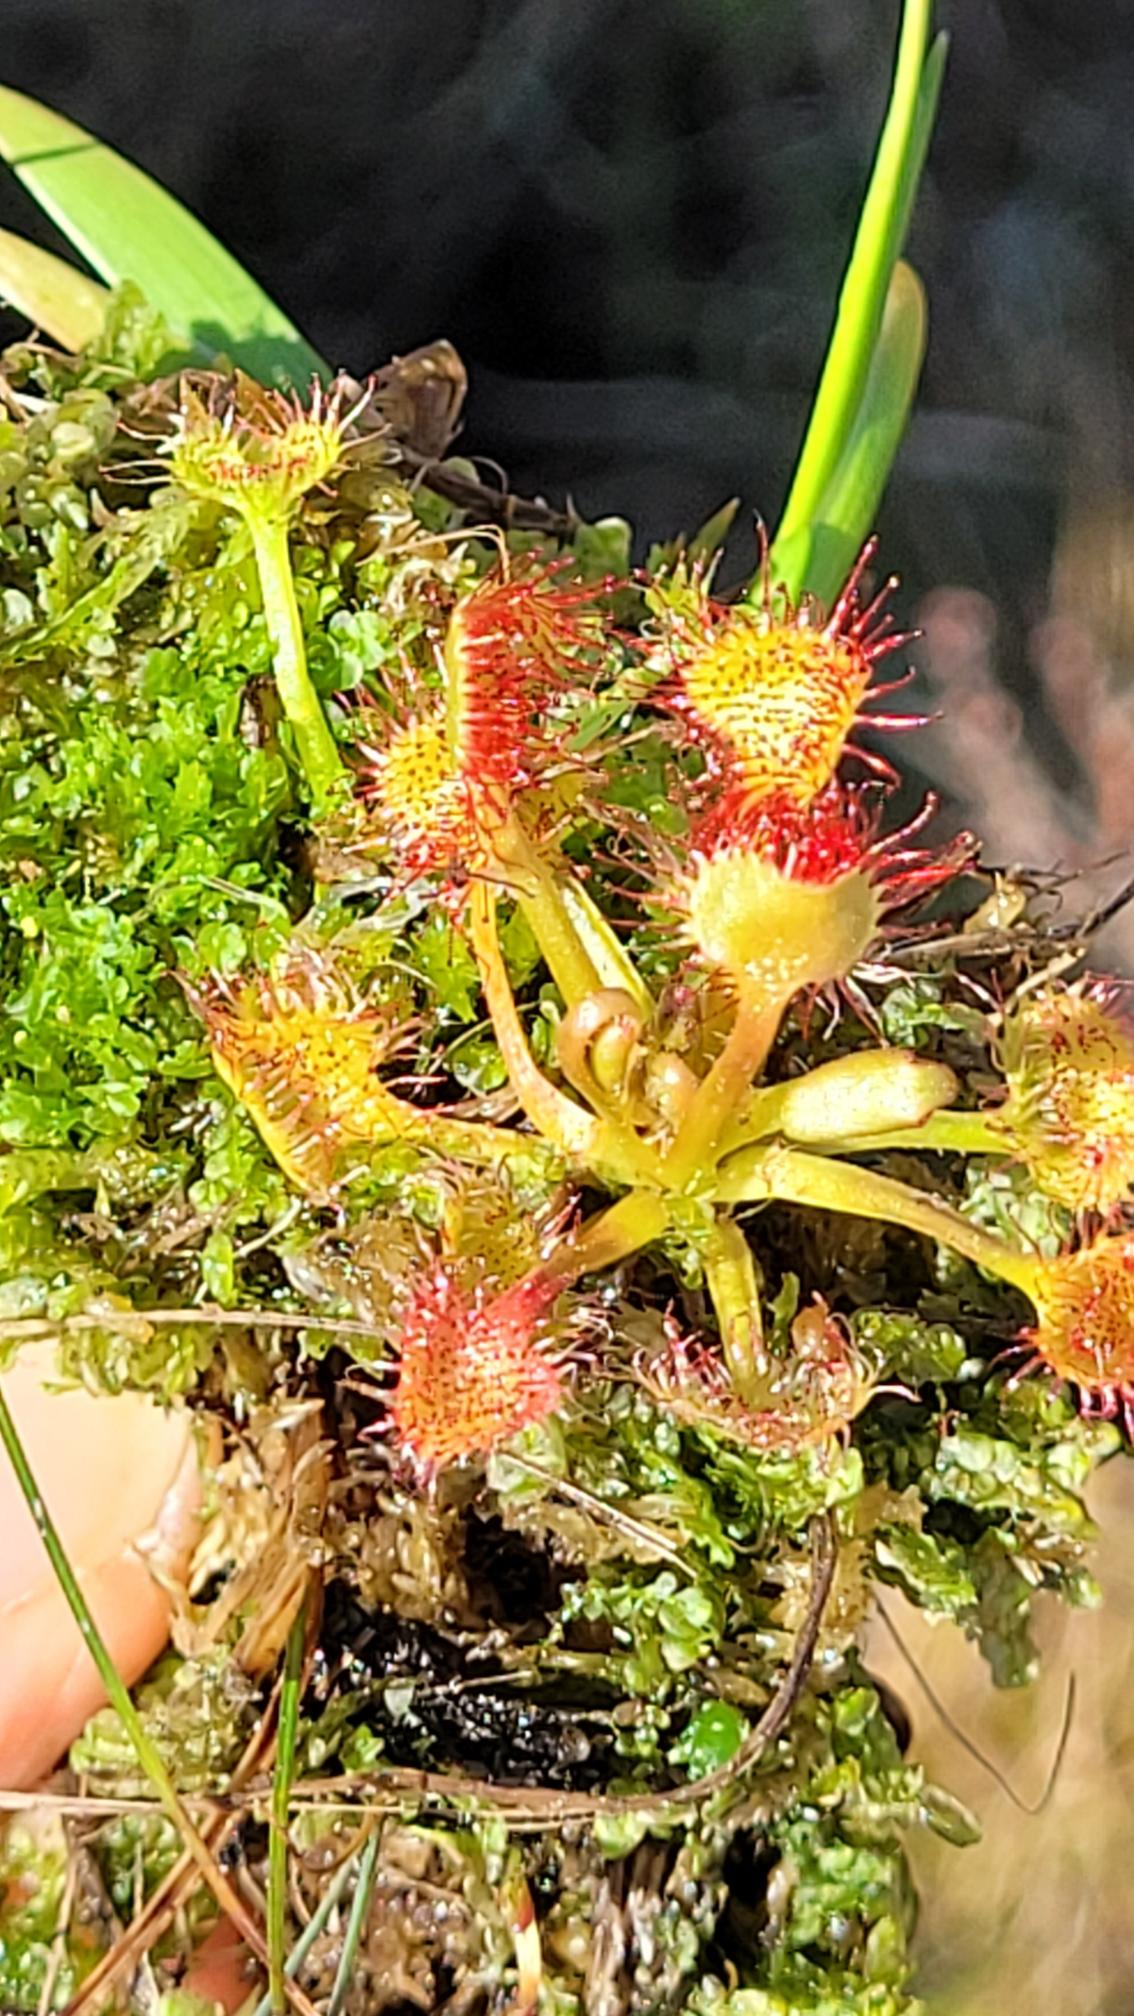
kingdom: Plantae
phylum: Tracheophyta
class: Magnoliopsida
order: Caryophyllales
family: Droseraceae
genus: Drosera
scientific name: Drosera rotundifolia
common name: Rundbladet soldug
